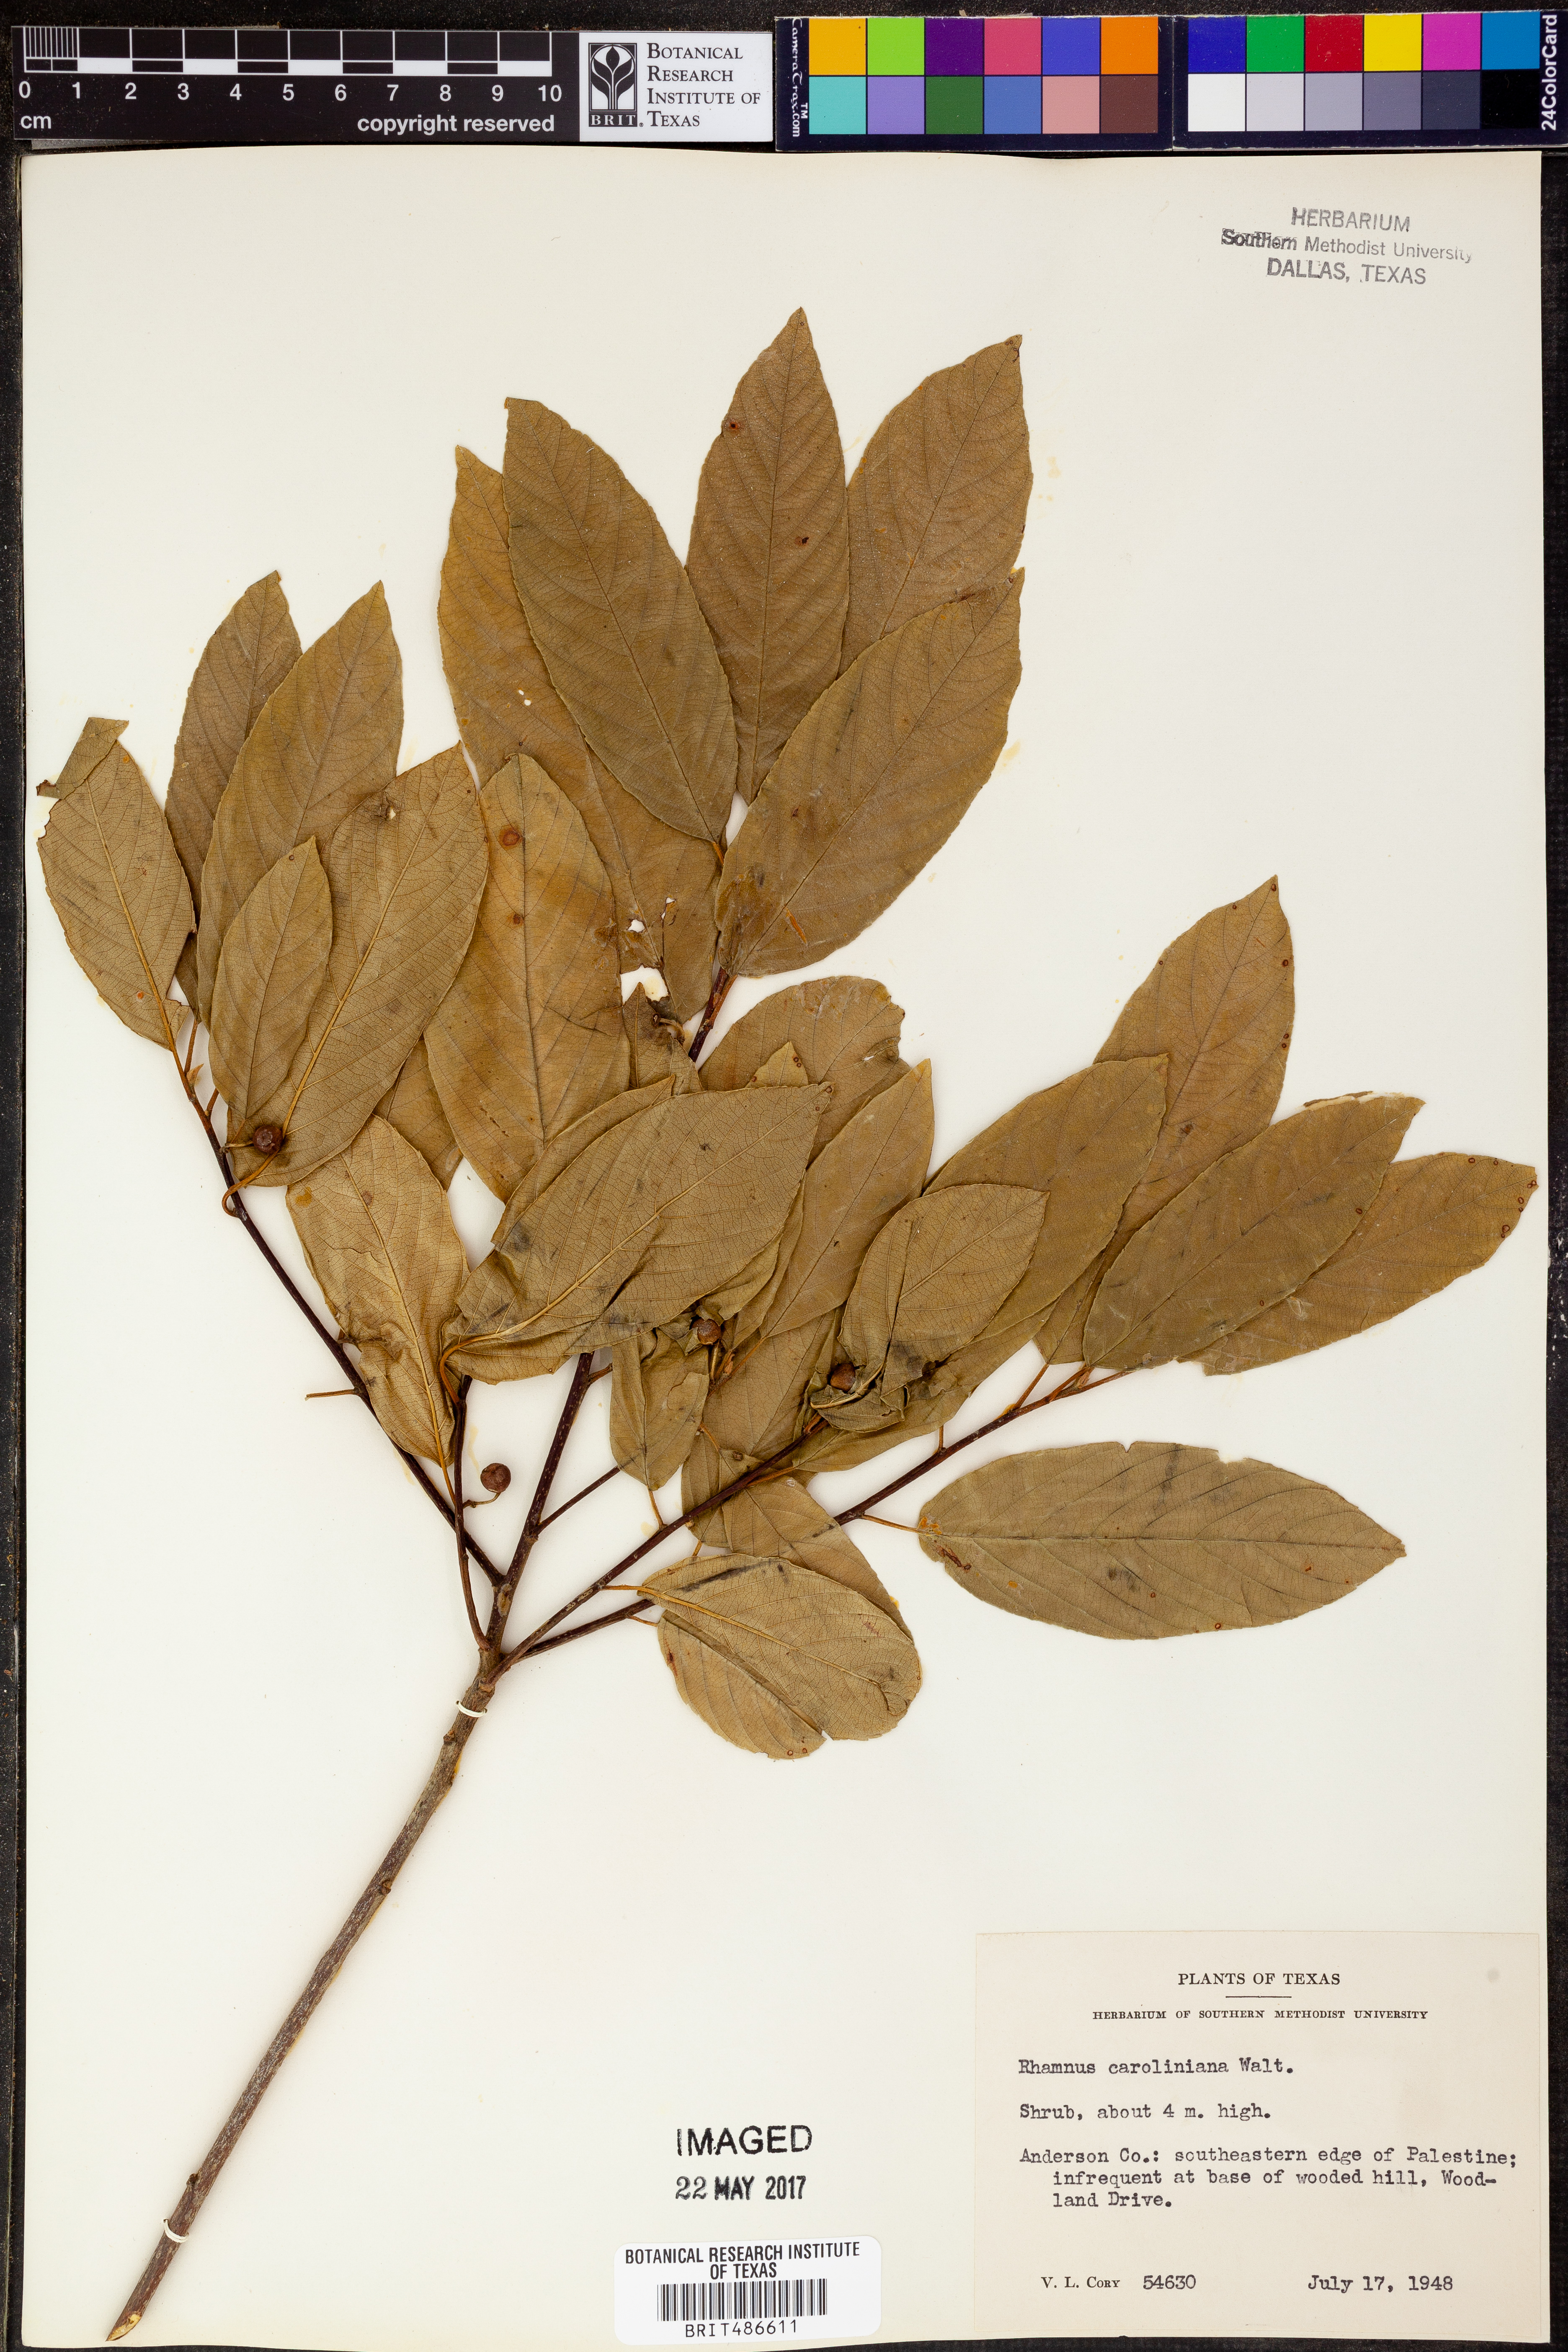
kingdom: Plantae
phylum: Tracheophyta
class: Magnoliopsida
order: Rosales
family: Rhamnaceae
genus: Frangula
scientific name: Frangula caroliniana
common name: Carolina buckthorn
